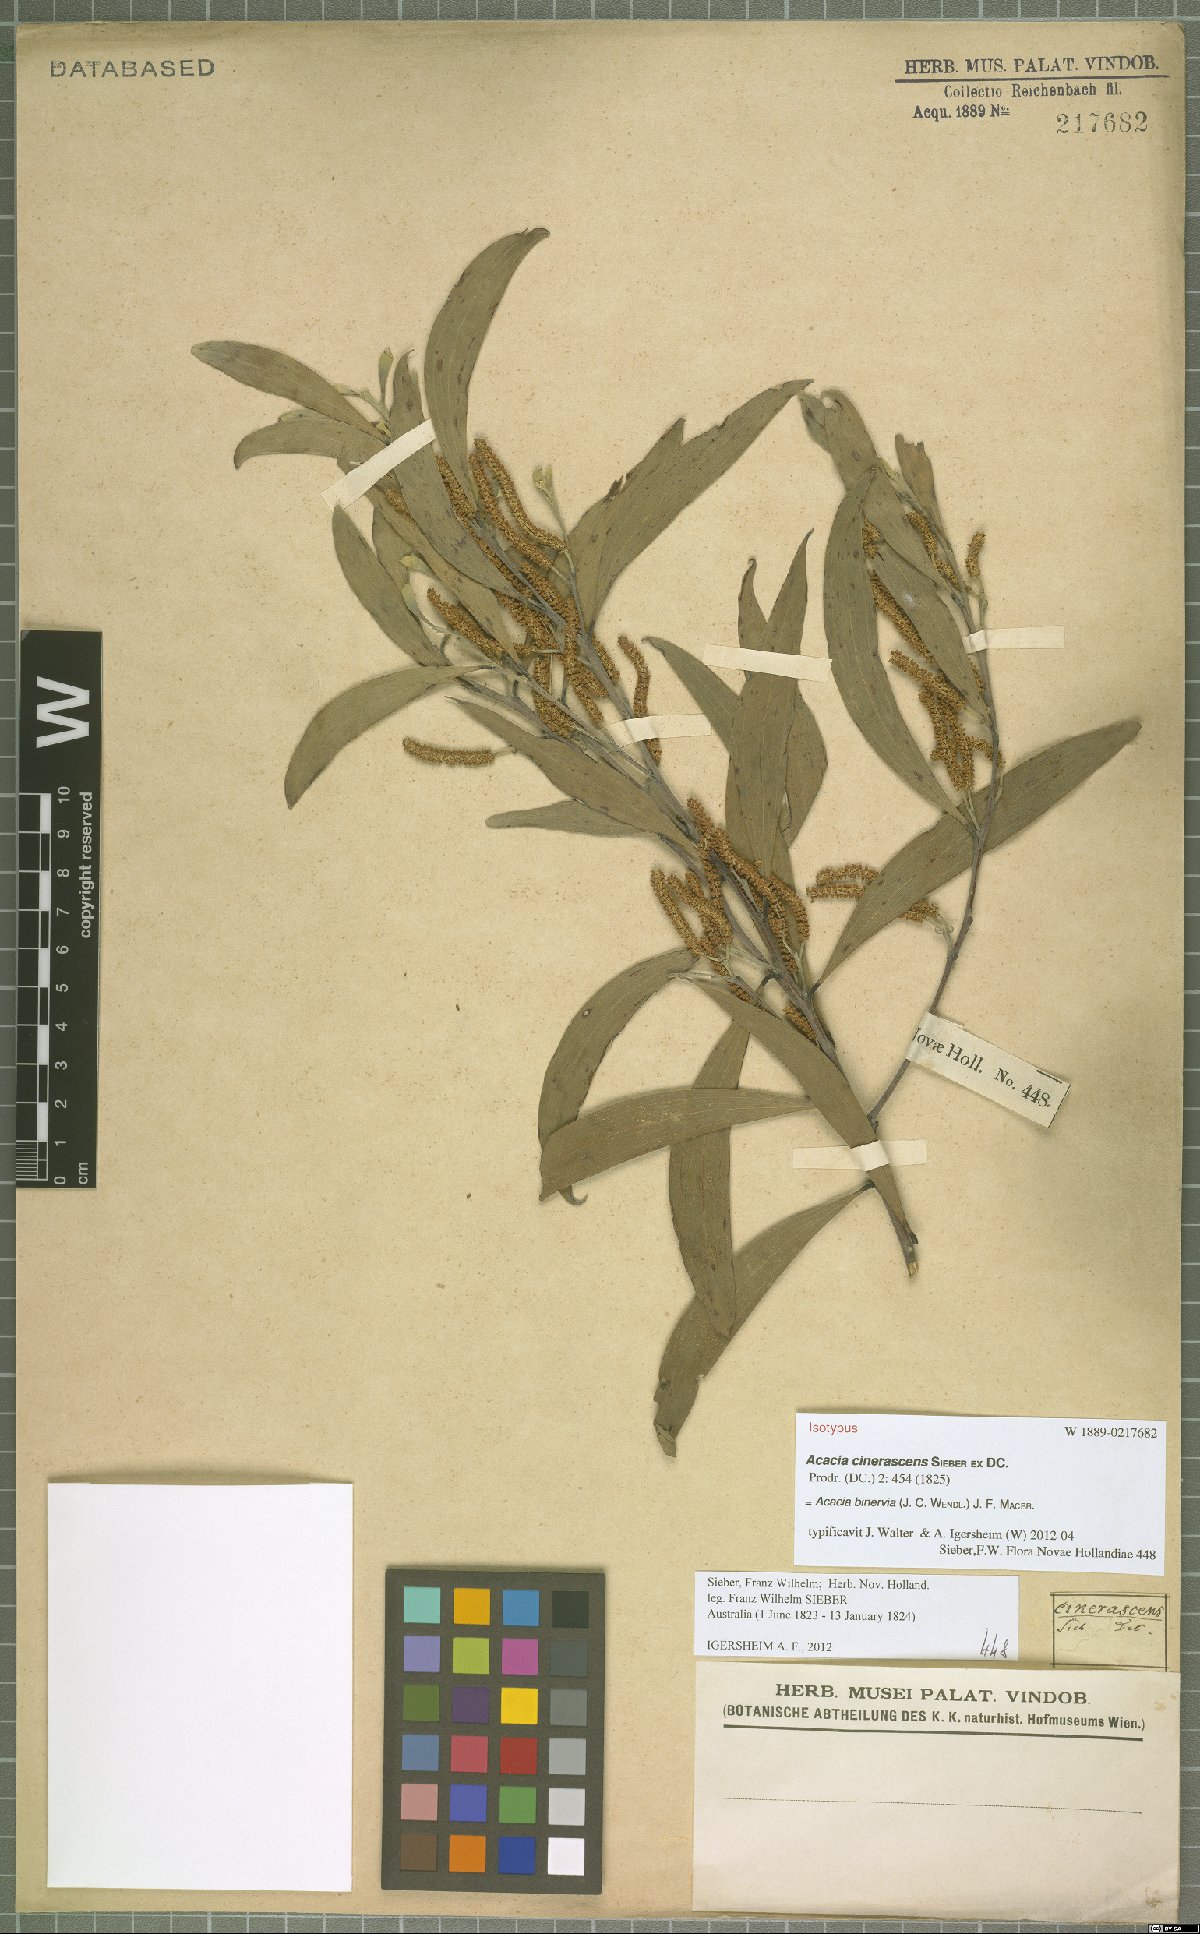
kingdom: Plantae
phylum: Tracheophyta
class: Magnoliopsida
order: Fabales
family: Fabaceae
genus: Acacia
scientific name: Acacia binervia
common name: Coast myall
